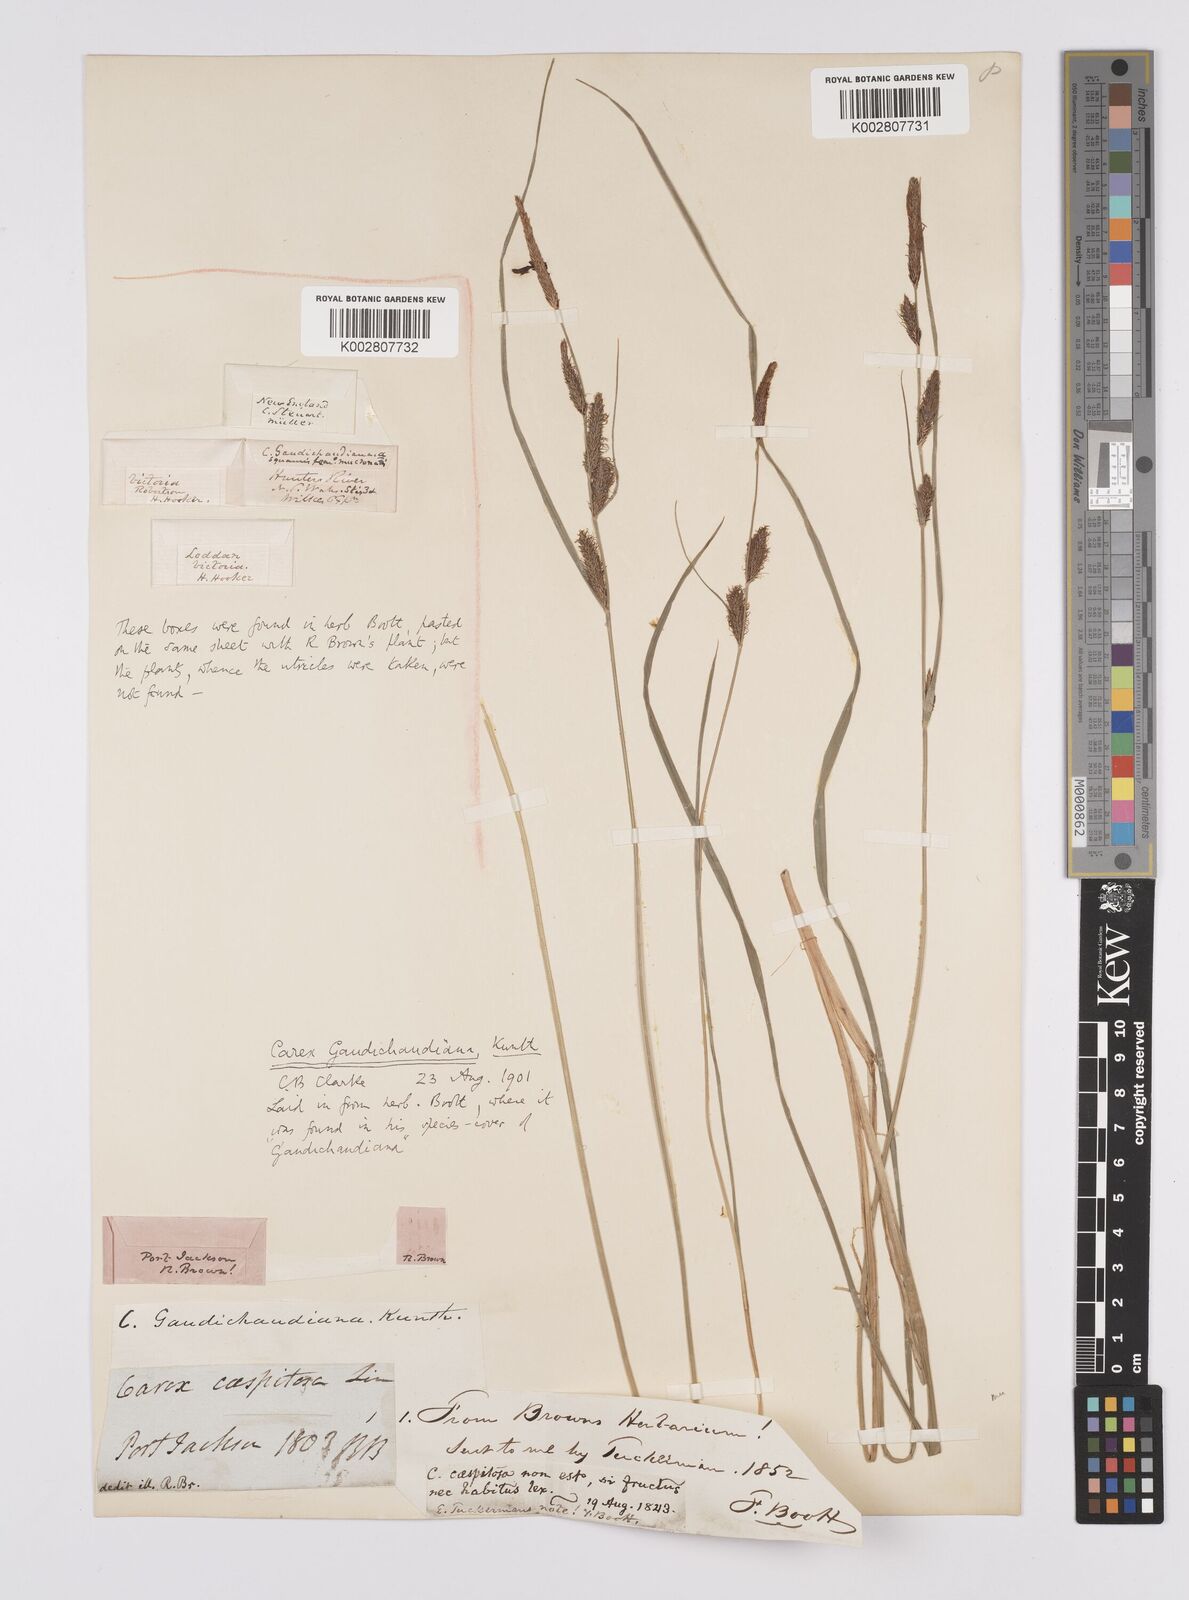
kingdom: Plantae
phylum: Tracheophyta
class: Liliopsida
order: Poales
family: Cyperaceae
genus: Carex
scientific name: Carex gaudichaudiana
